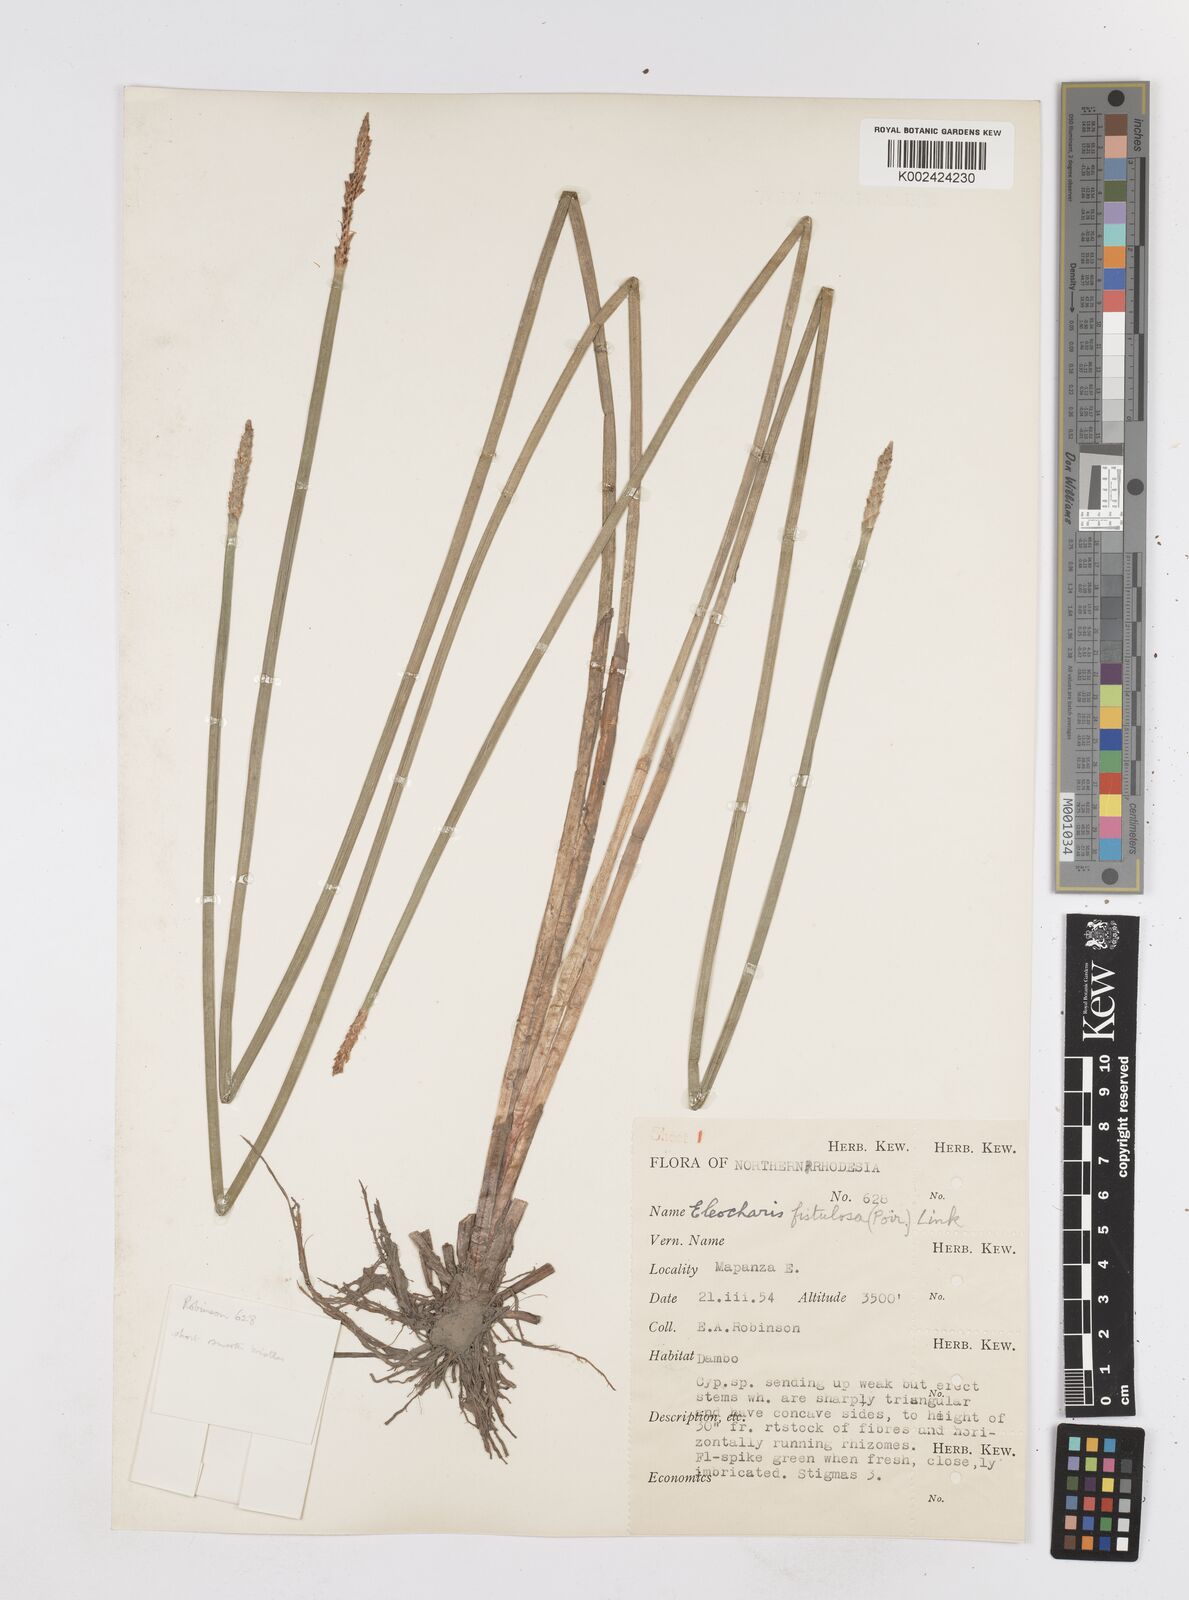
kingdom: Plantae
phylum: Tracheophyta
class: Liliopsida
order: Poales
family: Cyperaceae
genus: Eleocharis
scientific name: Eleocharis acutangula
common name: Acute spikerush
